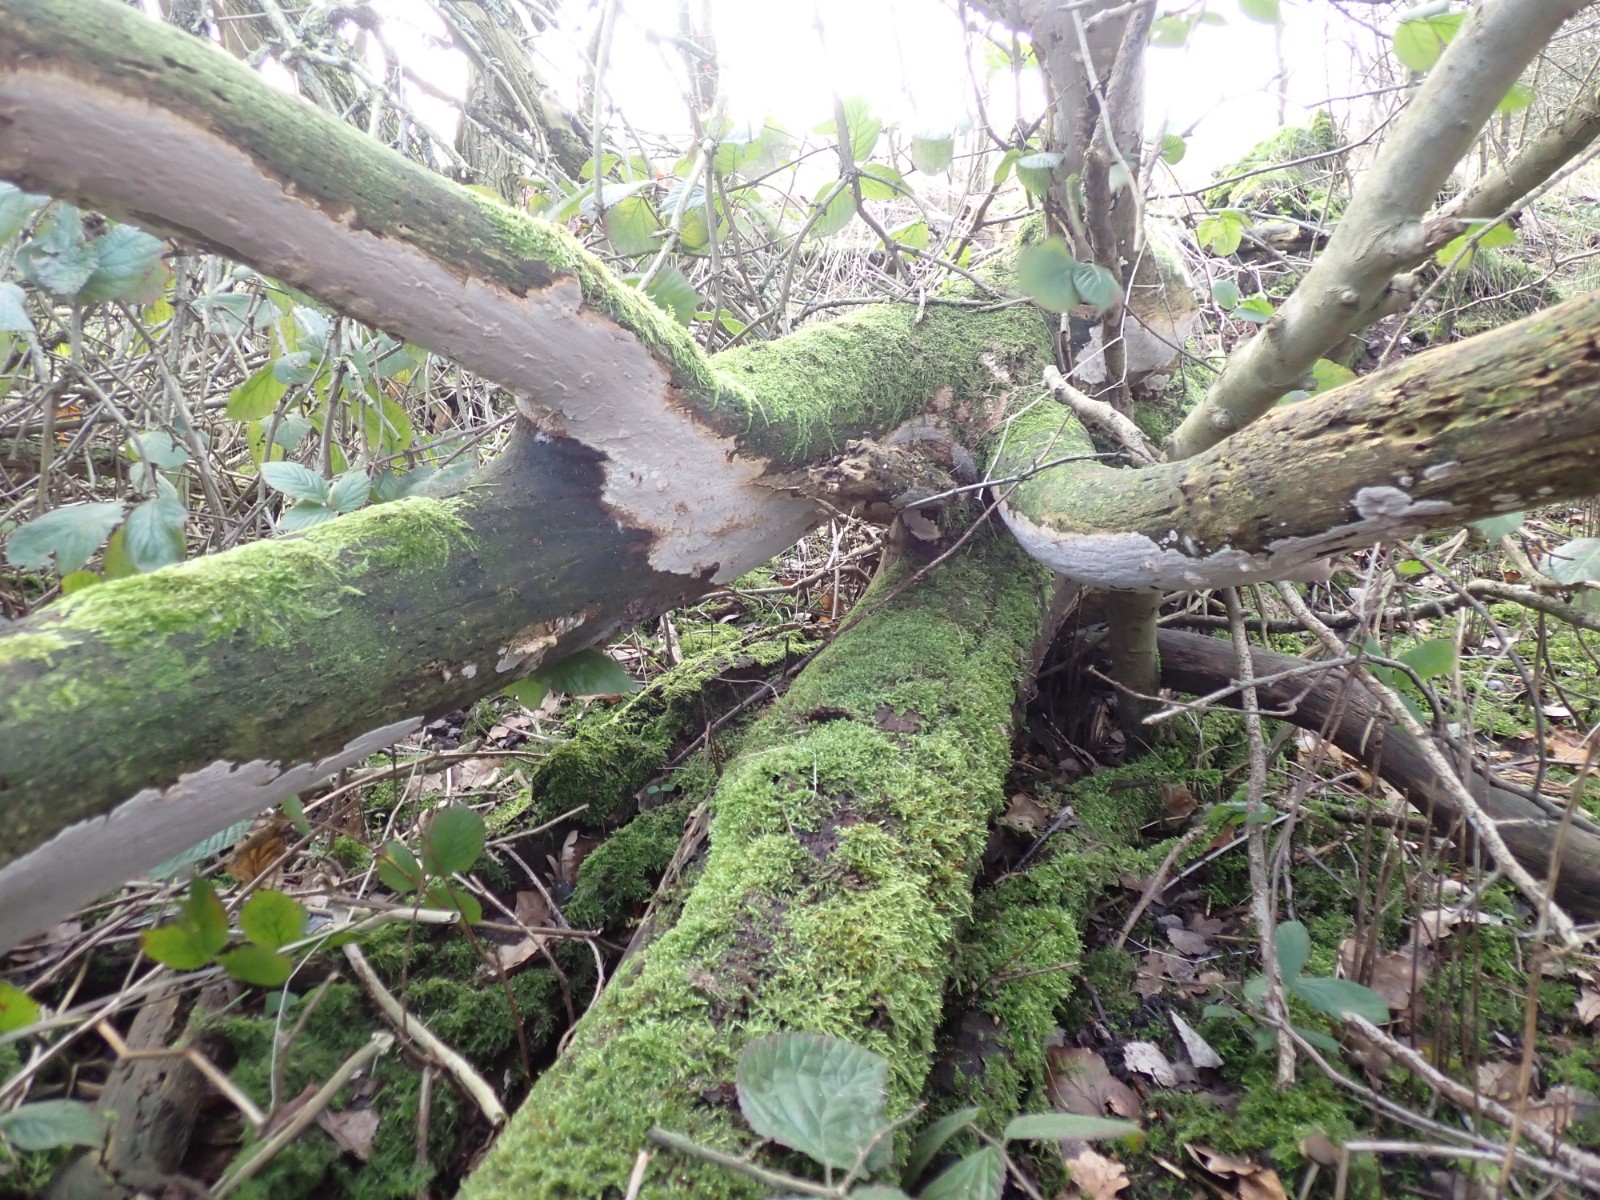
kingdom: Fungi
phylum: Basidiomycota
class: Agaricomycetes
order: Russulales
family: Peniophoraceae
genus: Scytinostroma
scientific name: Scytinostroma hemidichophyticum
